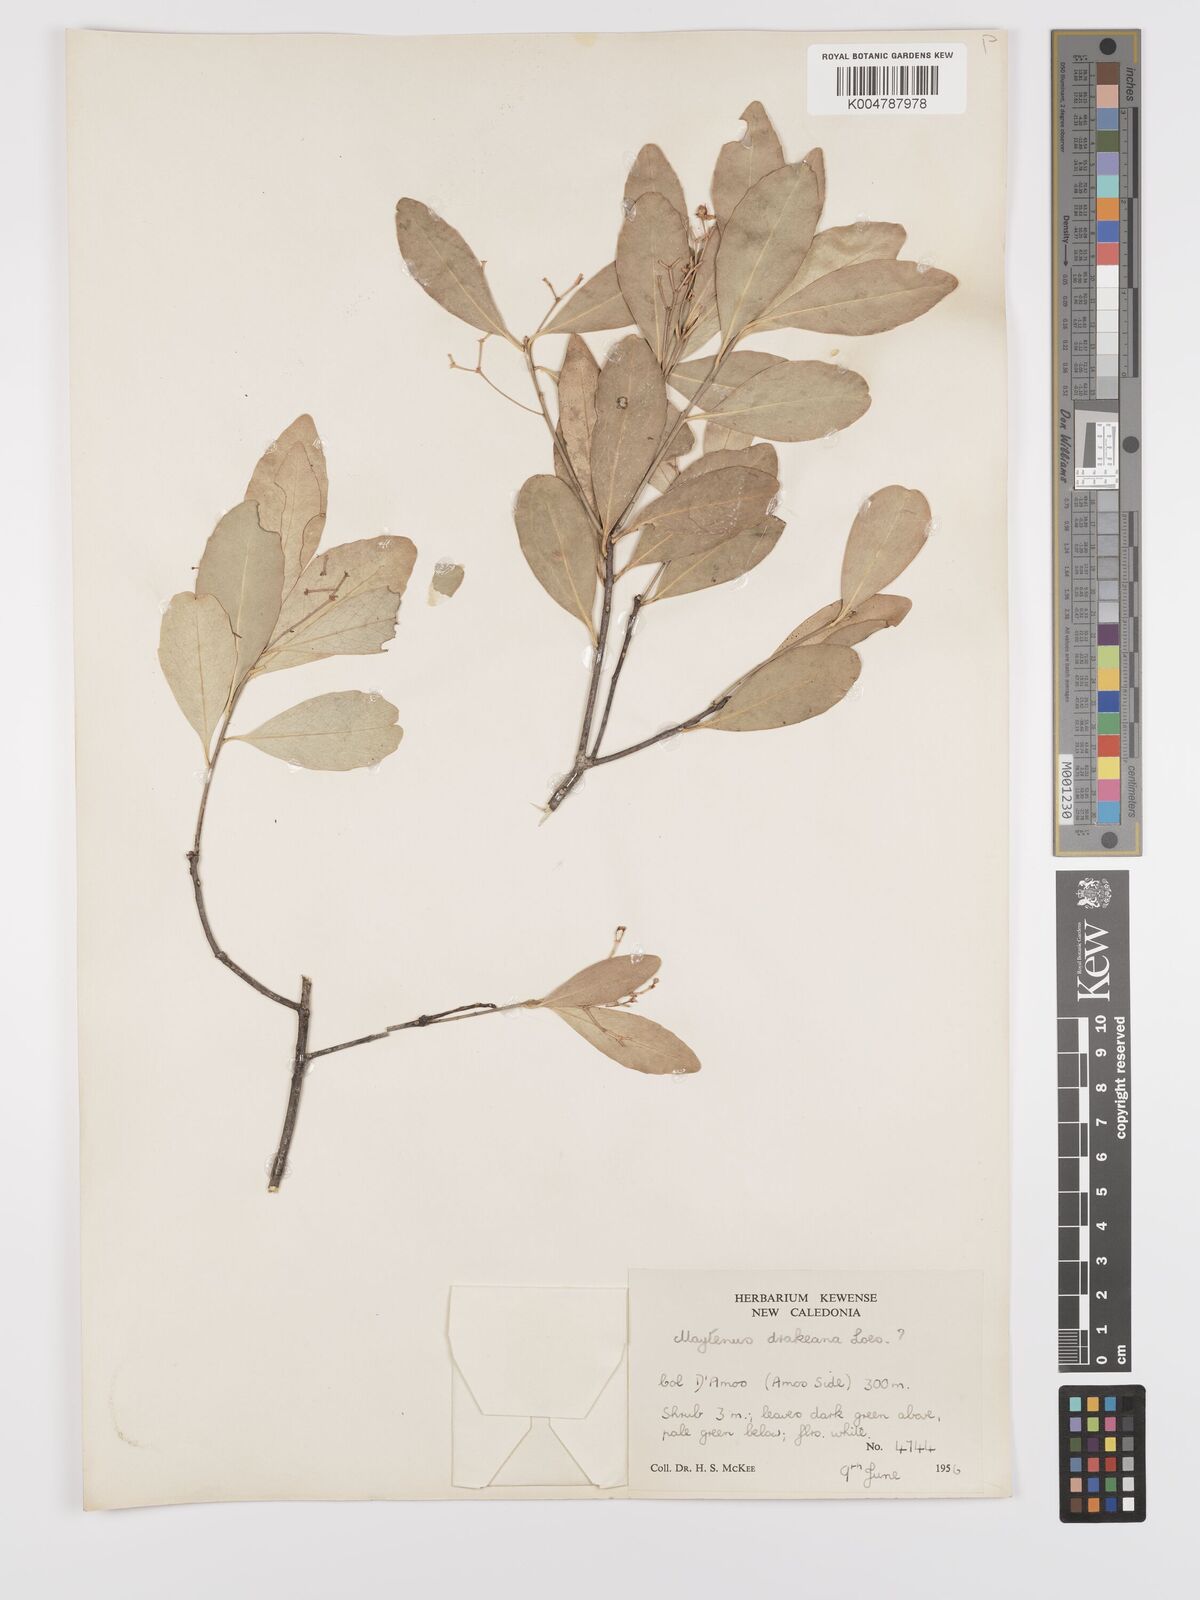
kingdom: Plantae
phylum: Tracheophyta
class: Magnoliopsida
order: Celastrales
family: Celastraceae
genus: Denhamia
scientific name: Denhamia fournieri
